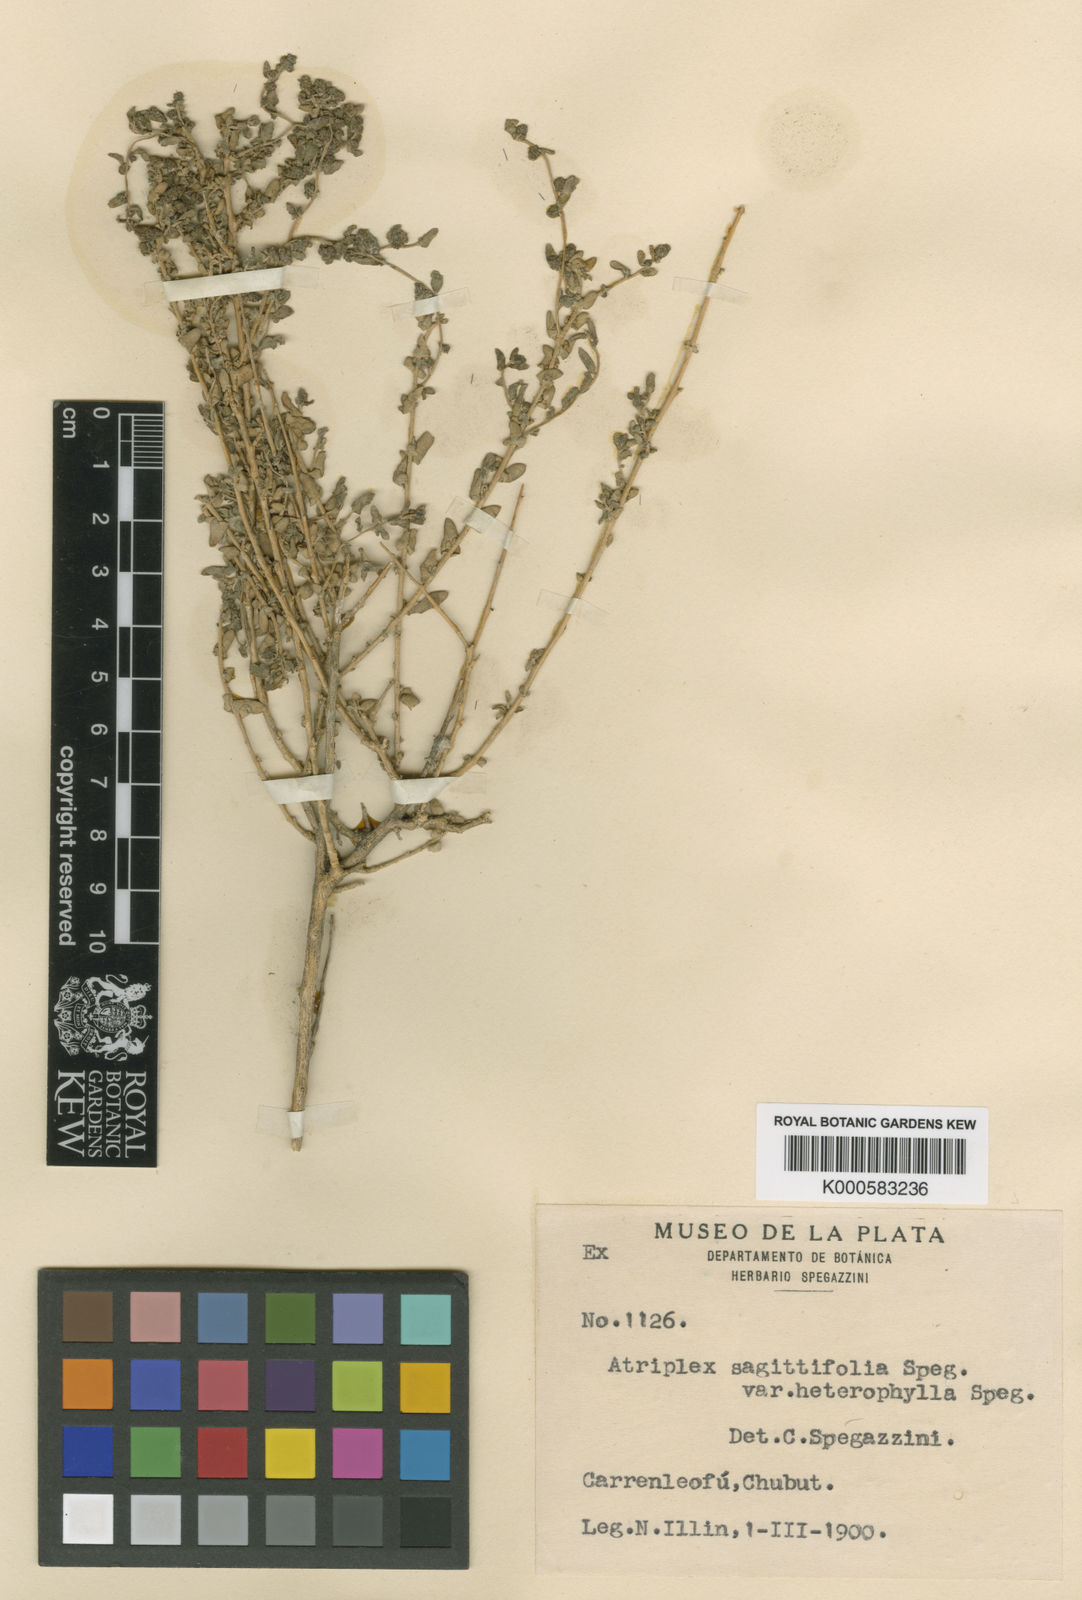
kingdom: Plantae
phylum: Tracheophyta
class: Magnoliopsida
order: Caryophyllales
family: Amaranthaceae
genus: Atriplex
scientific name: Atriplex sagittifolia
